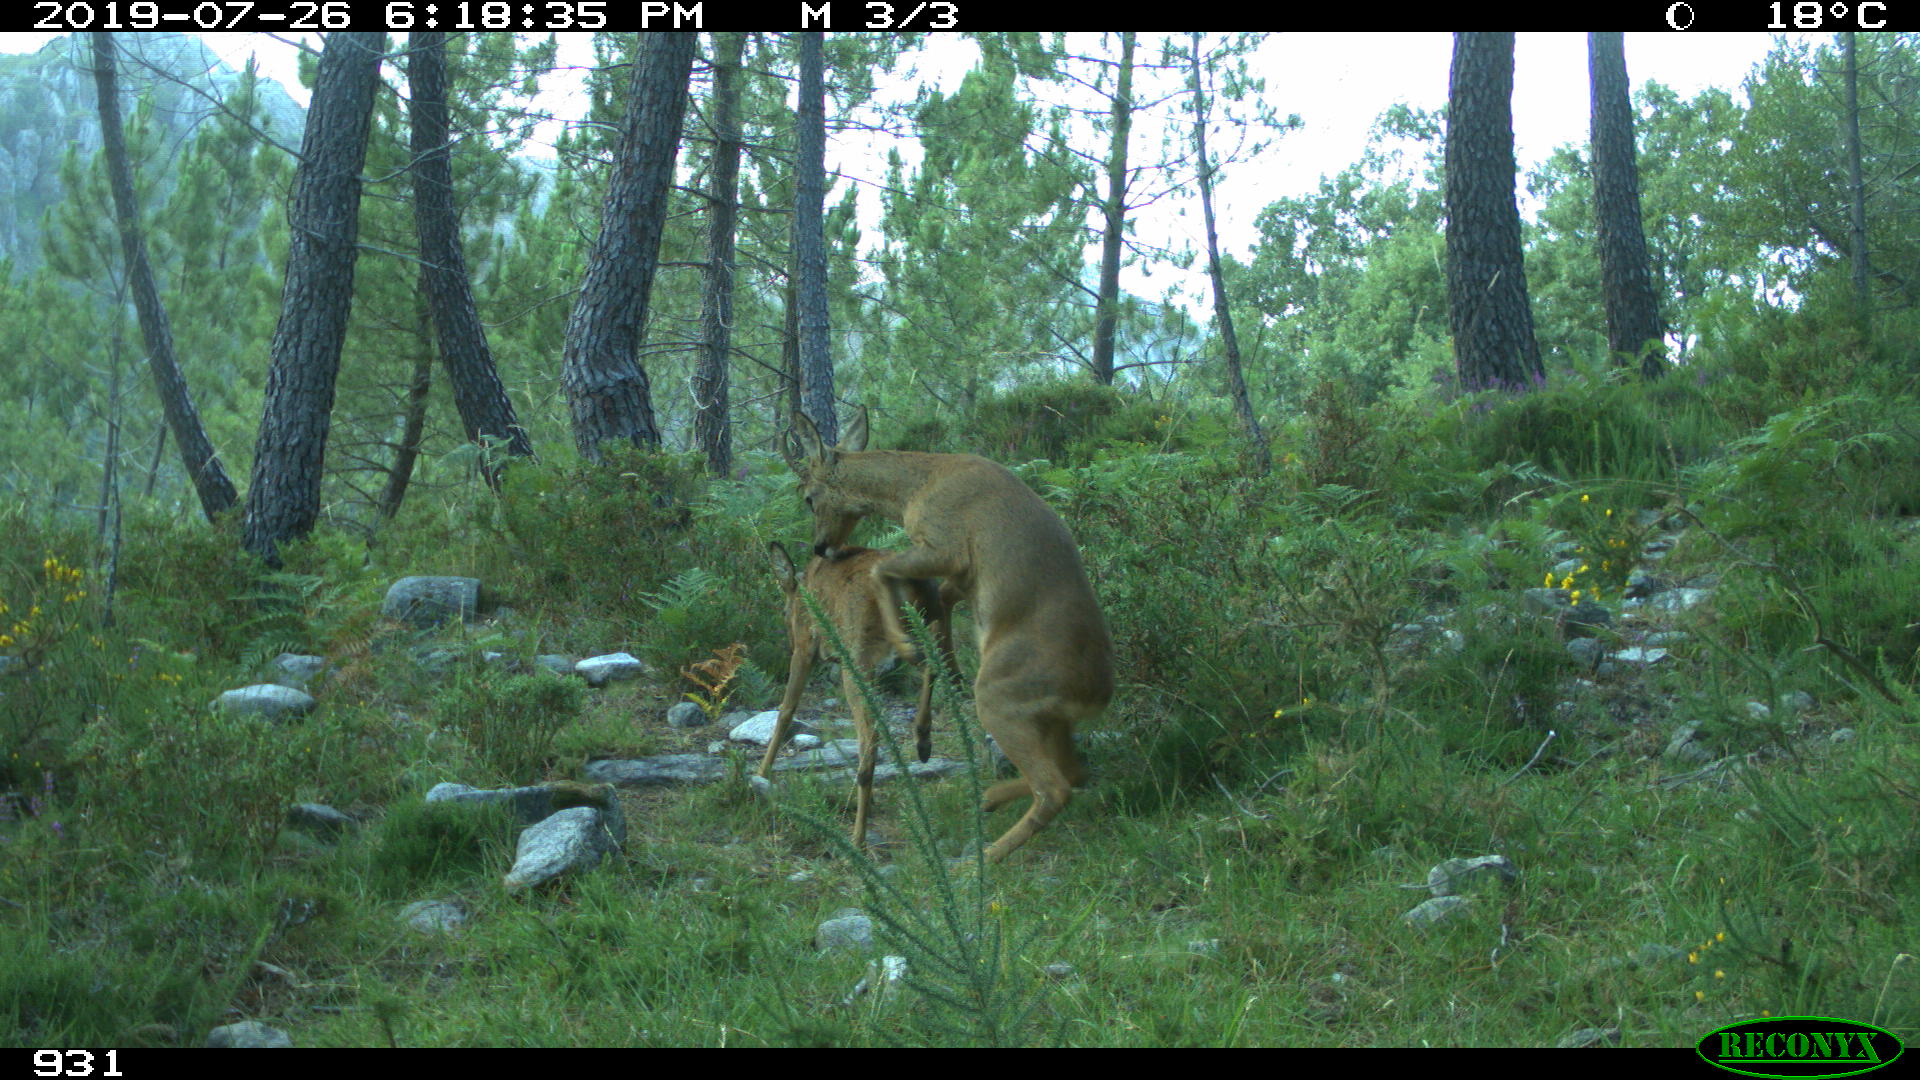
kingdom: Animalia
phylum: Chordata
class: Mammalia
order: Artiodactyla
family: Cervidae
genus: Capreolus
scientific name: Capreolus capreolus
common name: Western roe deer
